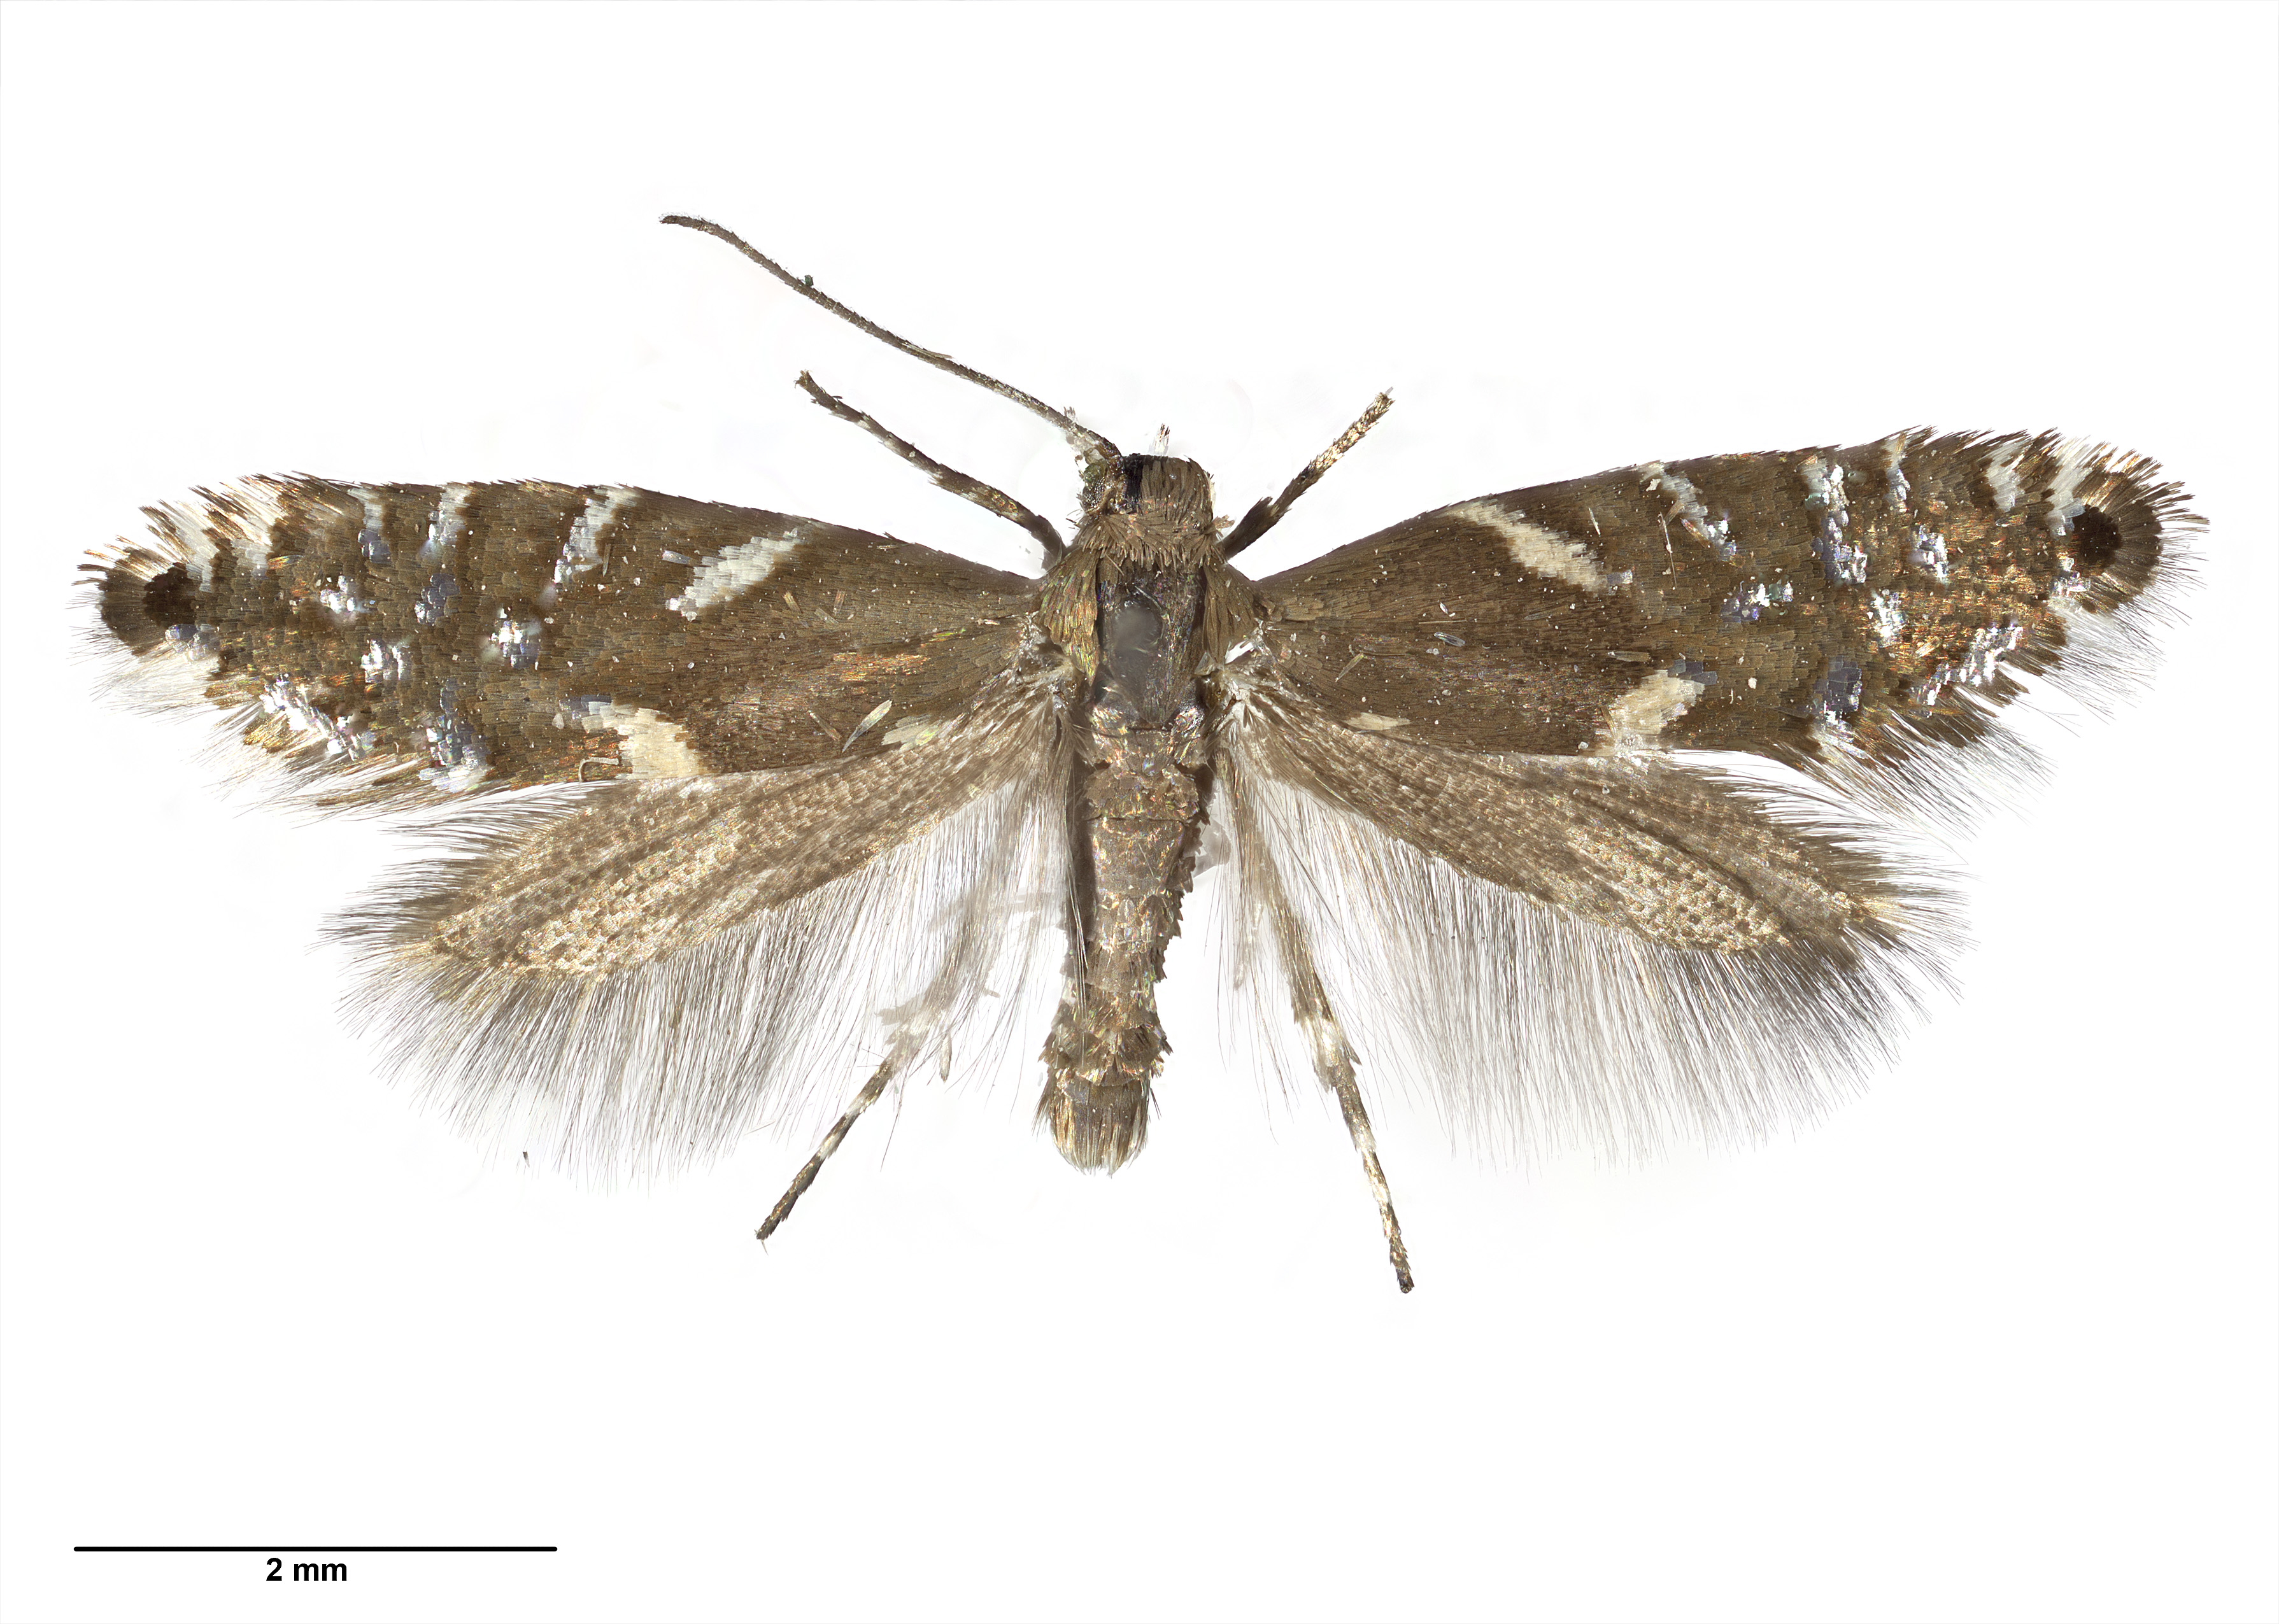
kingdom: Animalia
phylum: Arthropoda
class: Insecta
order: Lepidoptera
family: Glyphipterigidae
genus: Glyphipterix
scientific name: Glyphipterix scintilla
